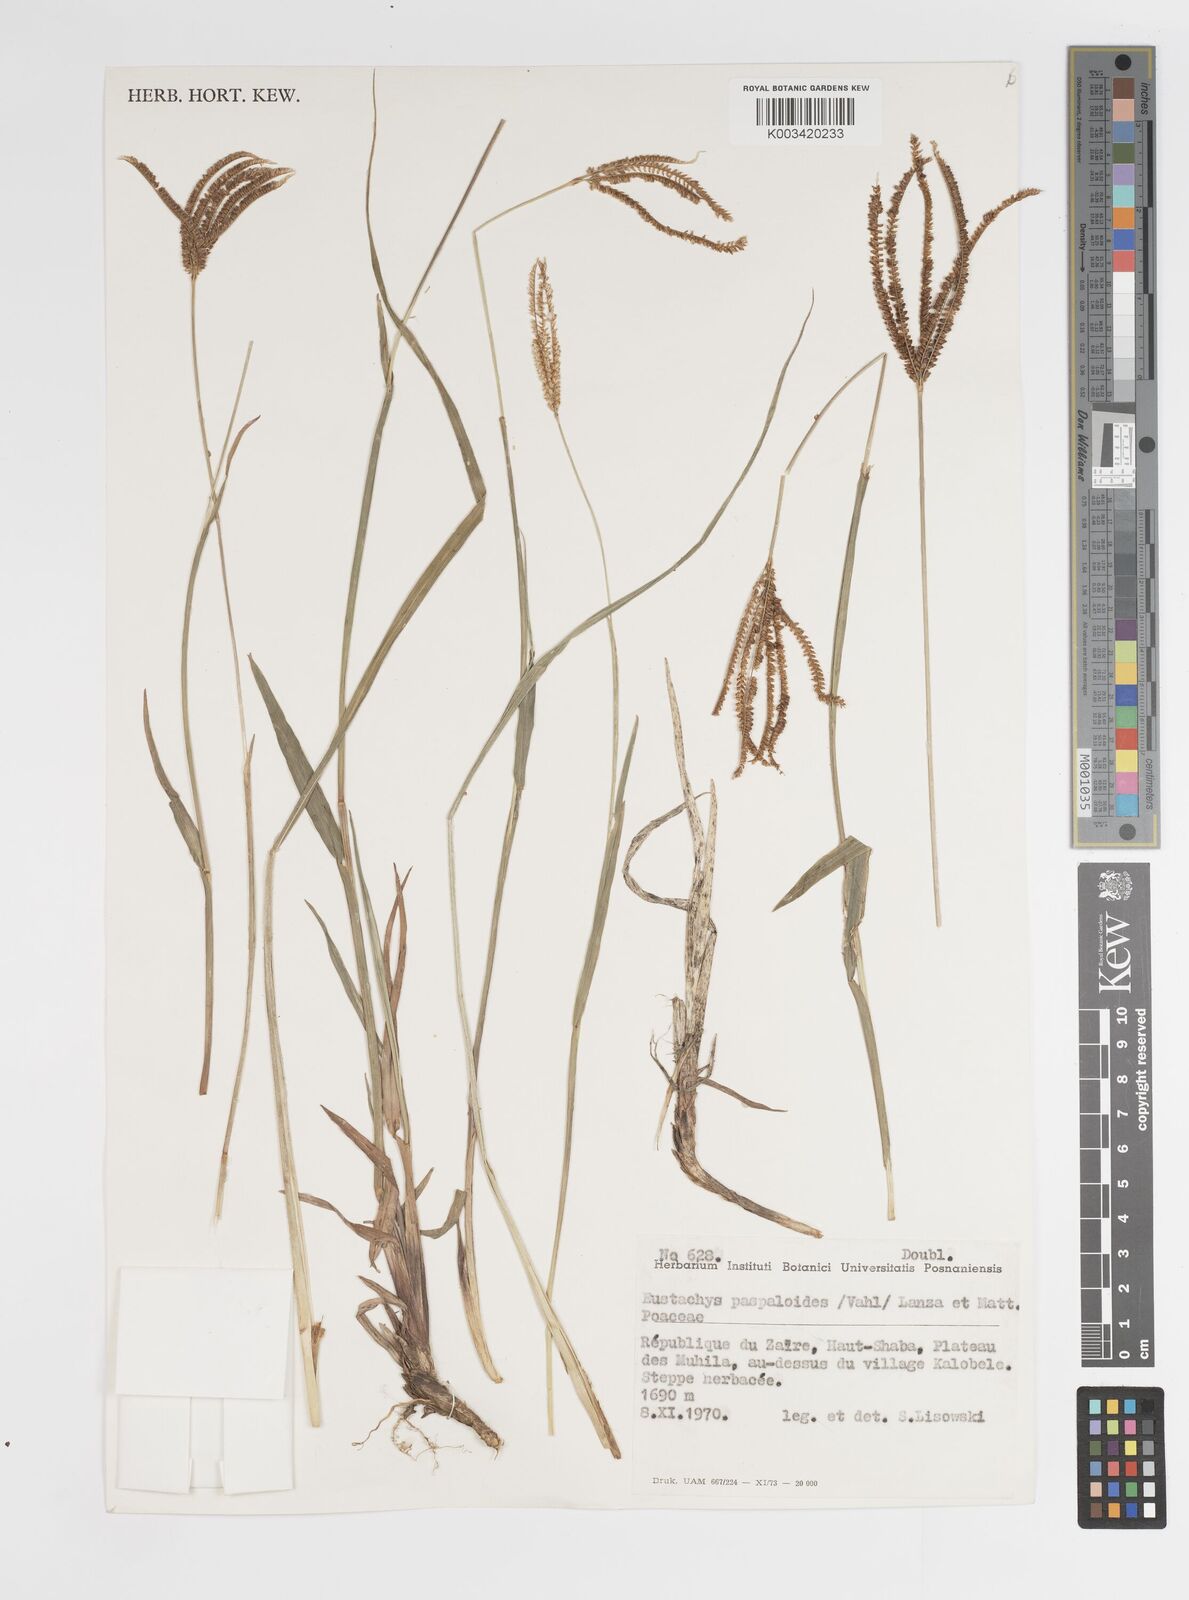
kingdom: Plantae
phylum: Tracheophyta
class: Liliopsida
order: Poales
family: Poaceae
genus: Eustachys
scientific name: Eustachys paspaloides
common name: Caribbean fingergrass
